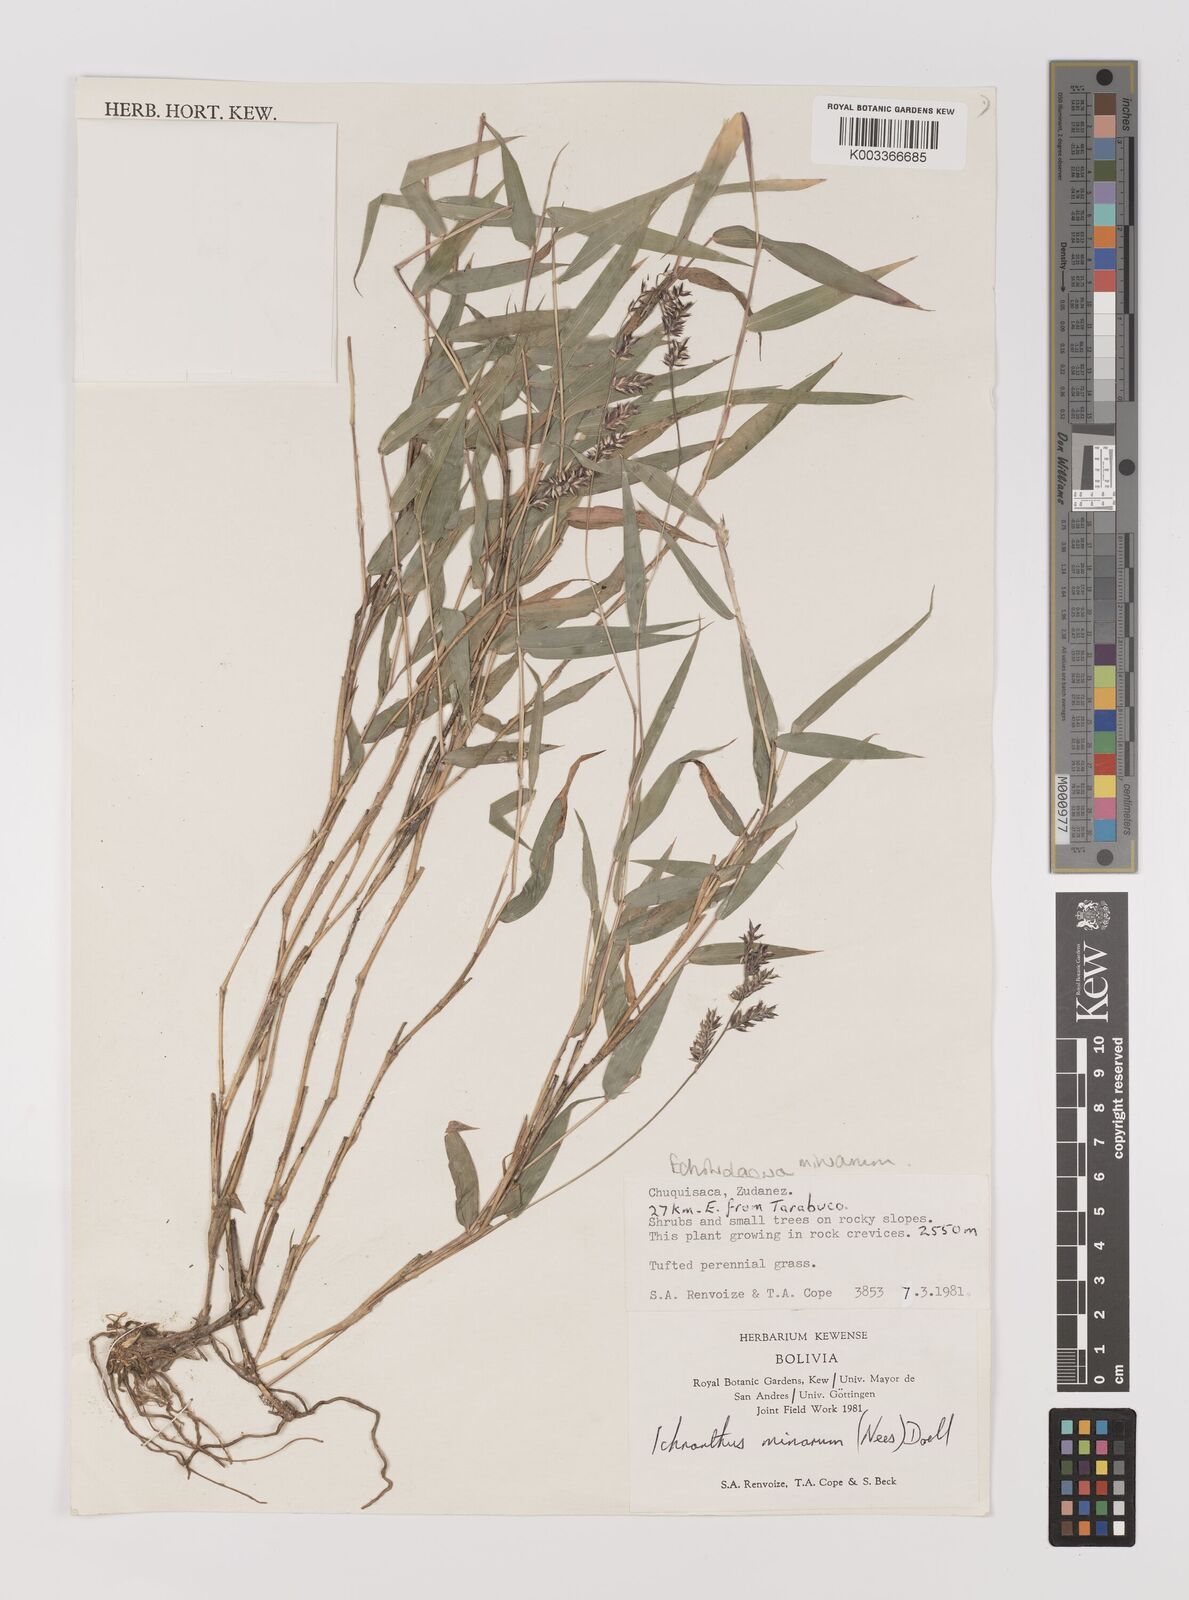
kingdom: Plantae
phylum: Tracheophyta
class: Liliopsida
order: Poales
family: Poaceae
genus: Oedochloa
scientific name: Oedochloa minarum
